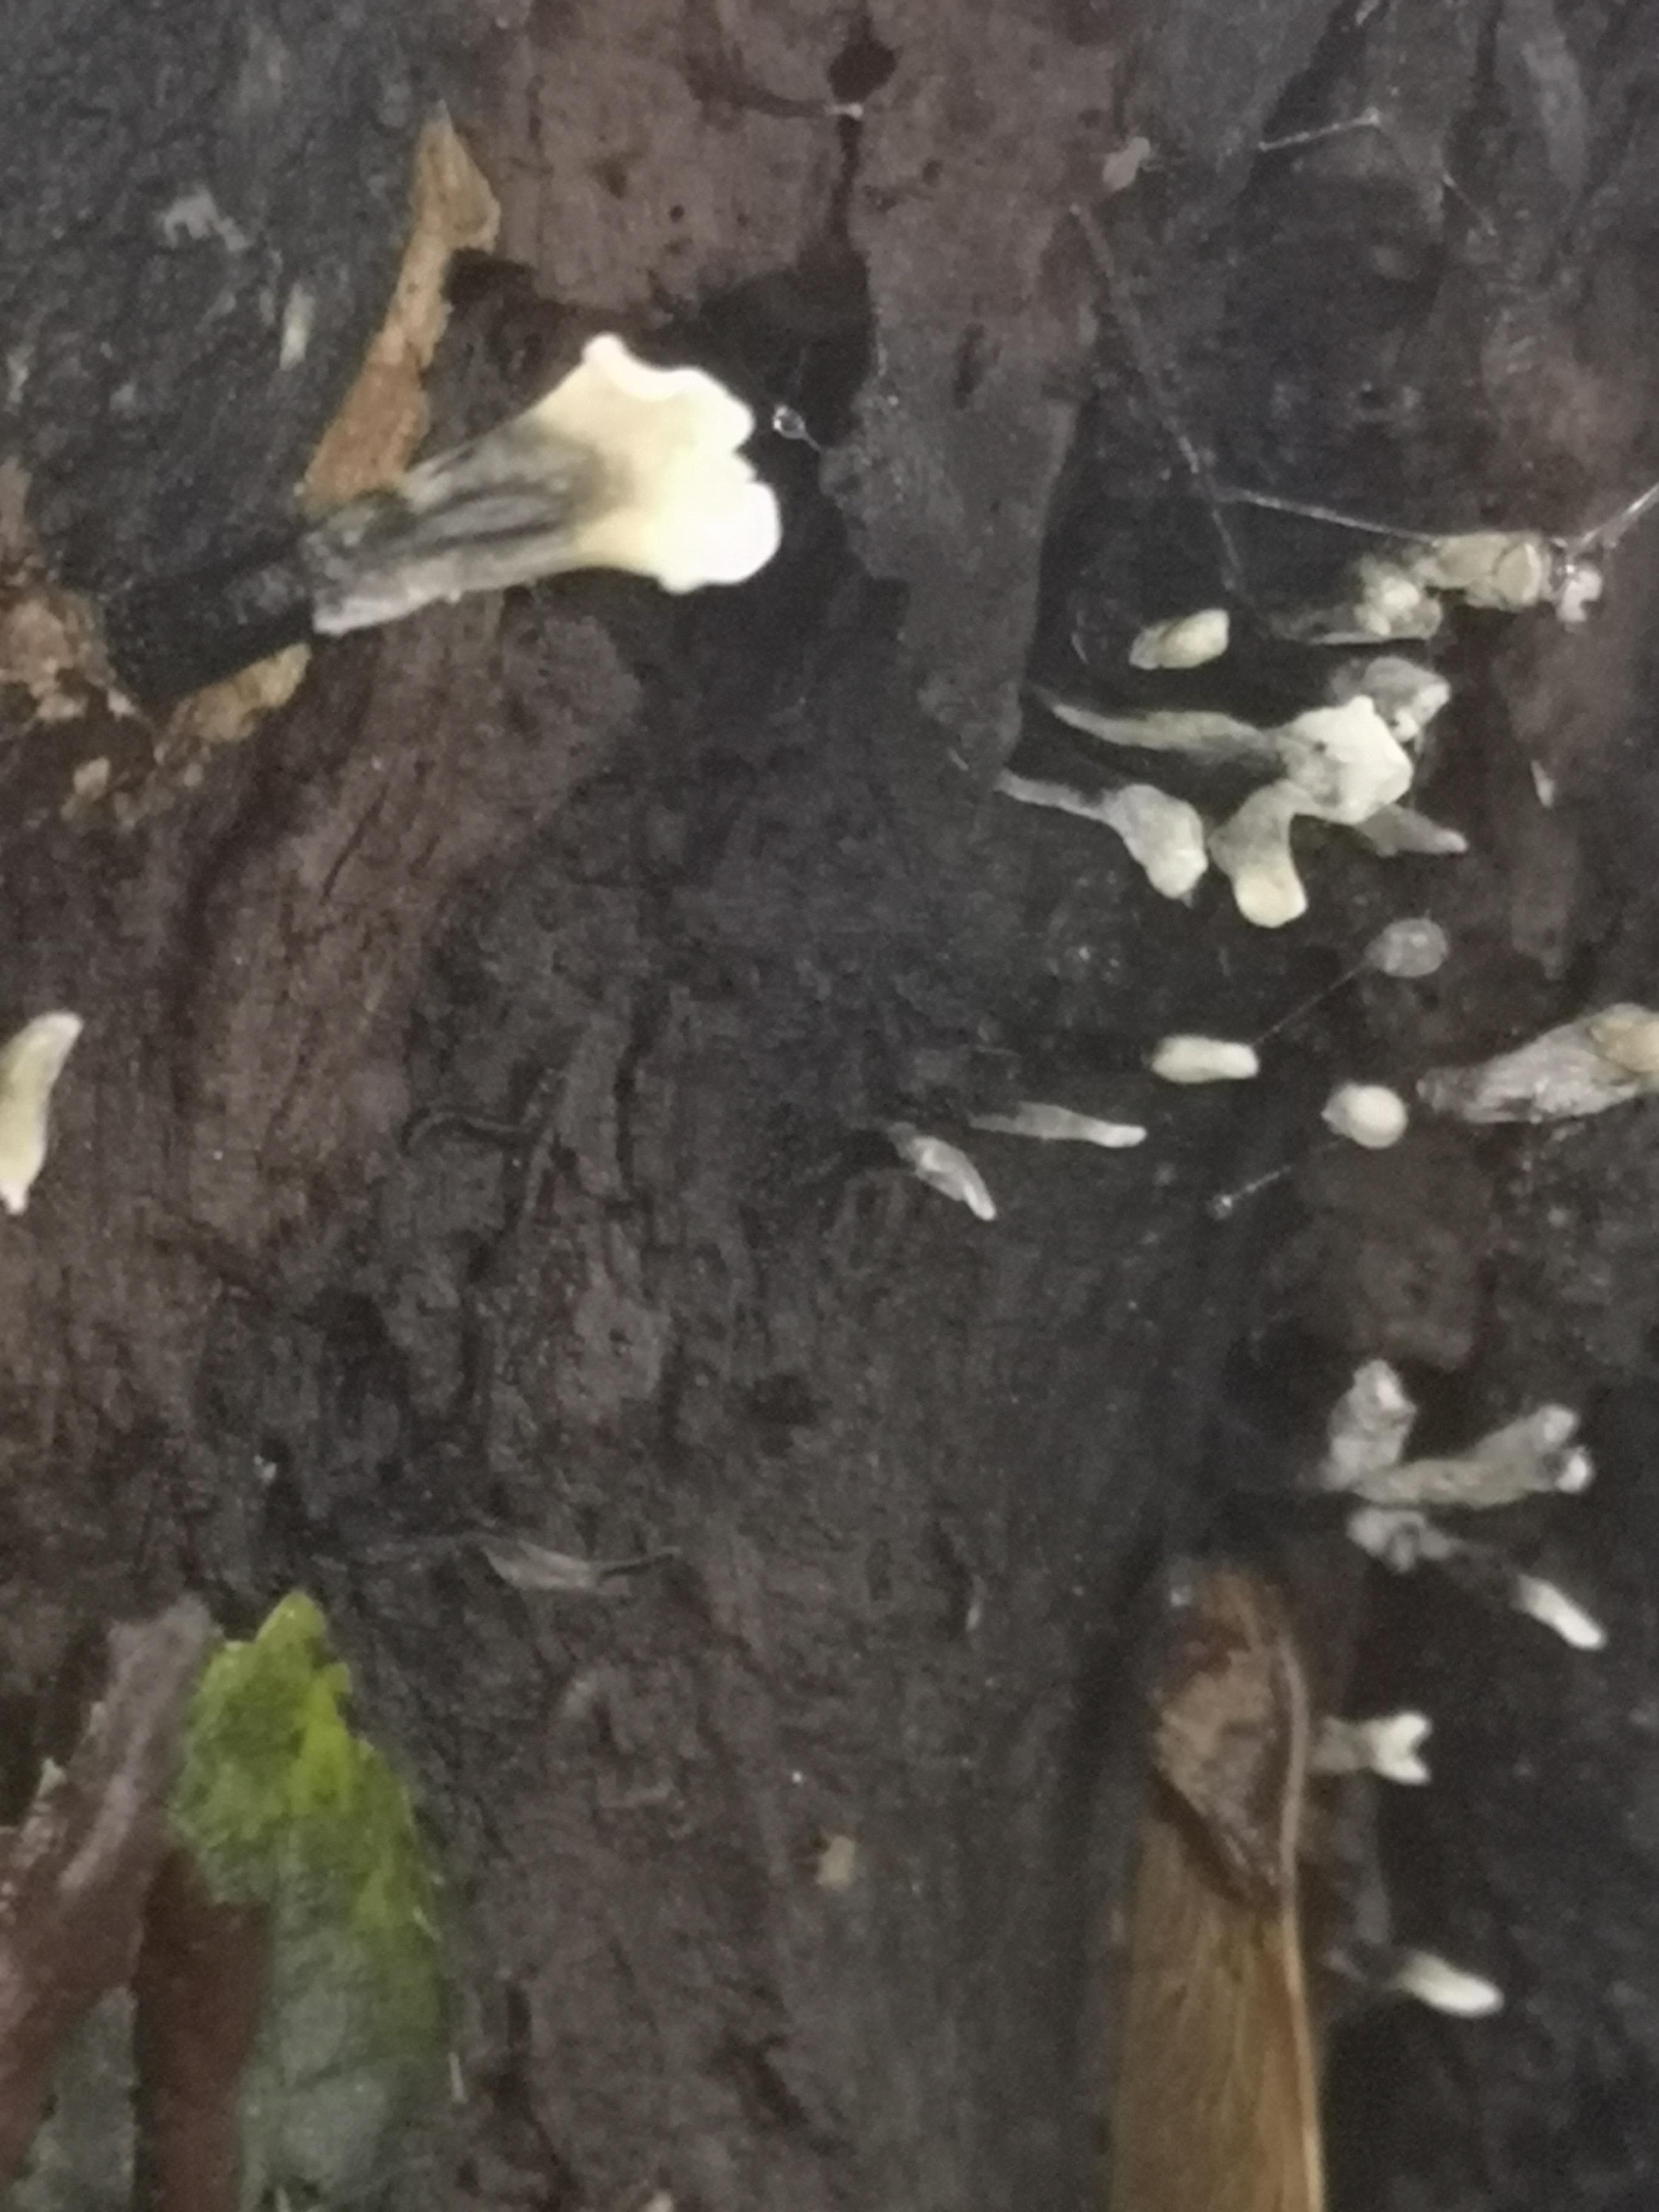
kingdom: Fungi
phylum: Ascomycota
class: Sordariomycetes
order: Xylariales
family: Xylariaceae
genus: Xylaria
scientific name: Xylaria hypoxylon
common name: grenet stødsvamp
